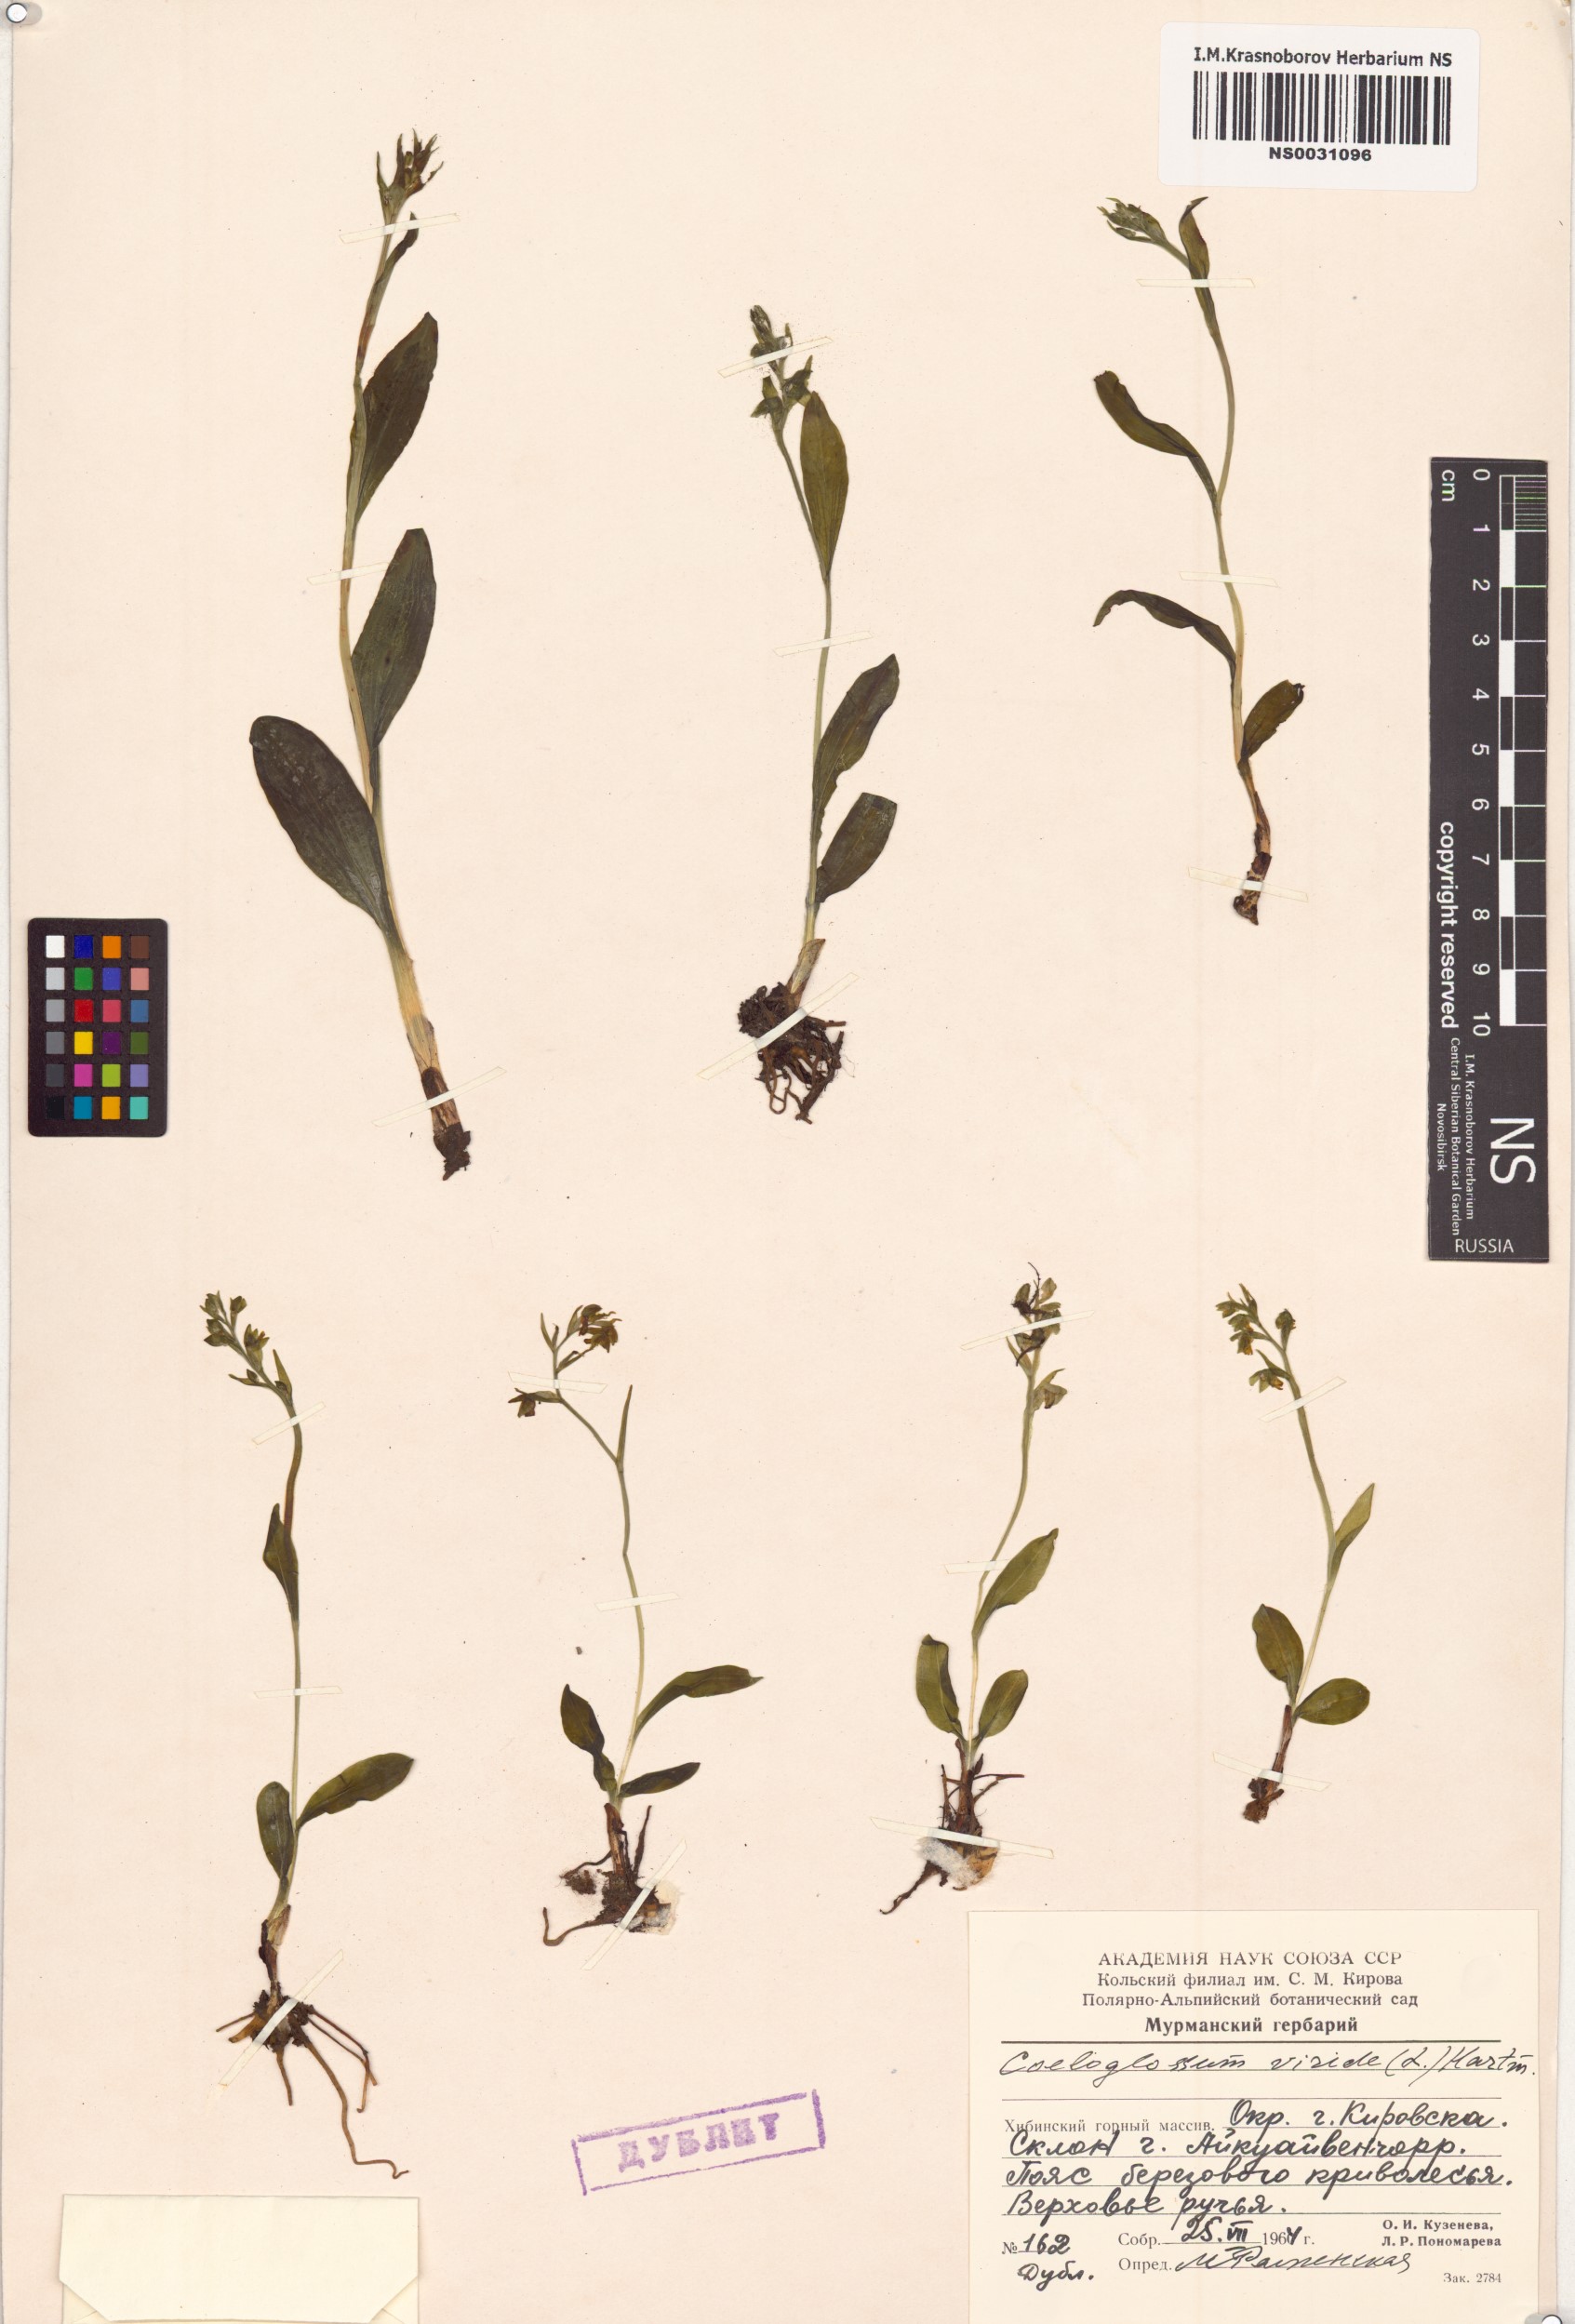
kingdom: Plantae
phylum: Tracheophyta
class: Liliopsida
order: Asparagales
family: Orchidaceae
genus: Dactylorhiza
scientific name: Dactylorhiza viridis
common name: Longbract frog orchid
